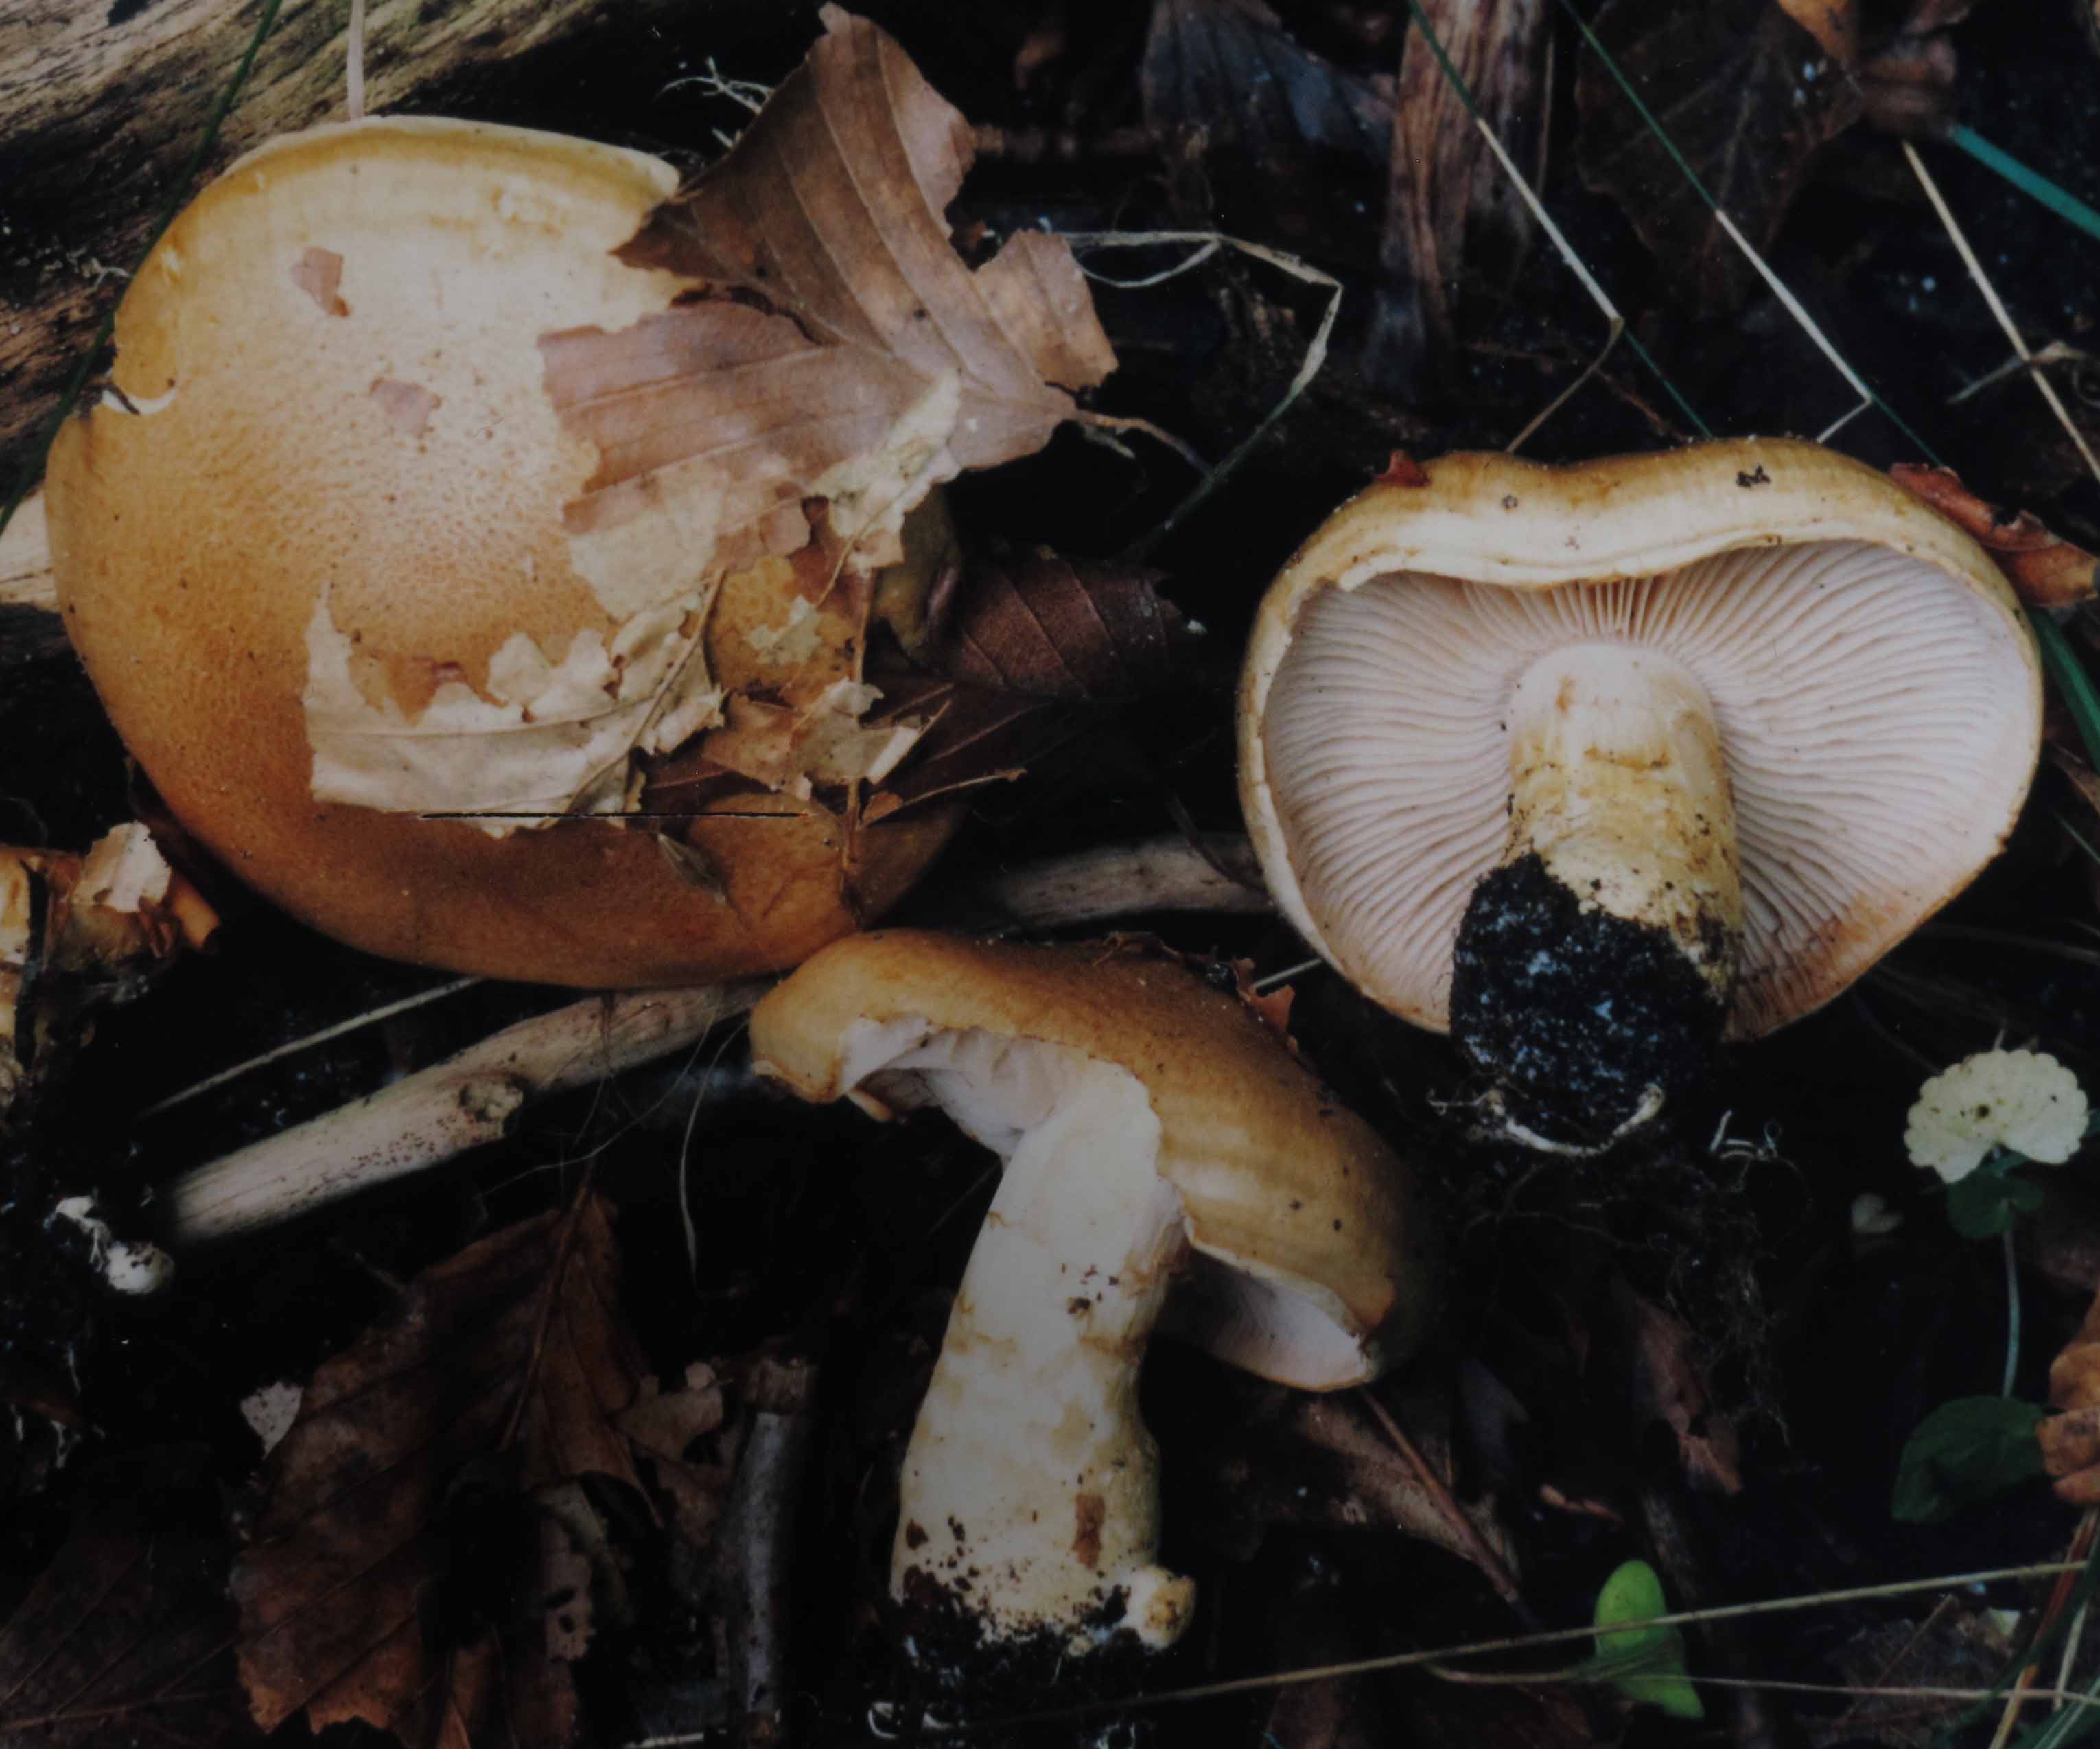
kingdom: Fungi
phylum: Basidiomycota
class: Agaricomycetes
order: Agaricales
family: Cortinariaceae
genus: Phlegmacium
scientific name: Phlegmacium cliduchus
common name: majs-slørhat
